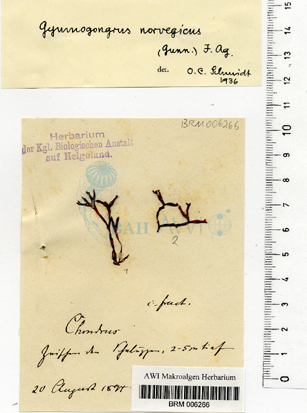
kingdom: Plantae
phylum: Rhodophyta
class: Florideophyceae
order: Gigartinales
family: Gigartinaceae
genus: Chondrus
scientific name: Chondrus crispus
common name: Carrageen
